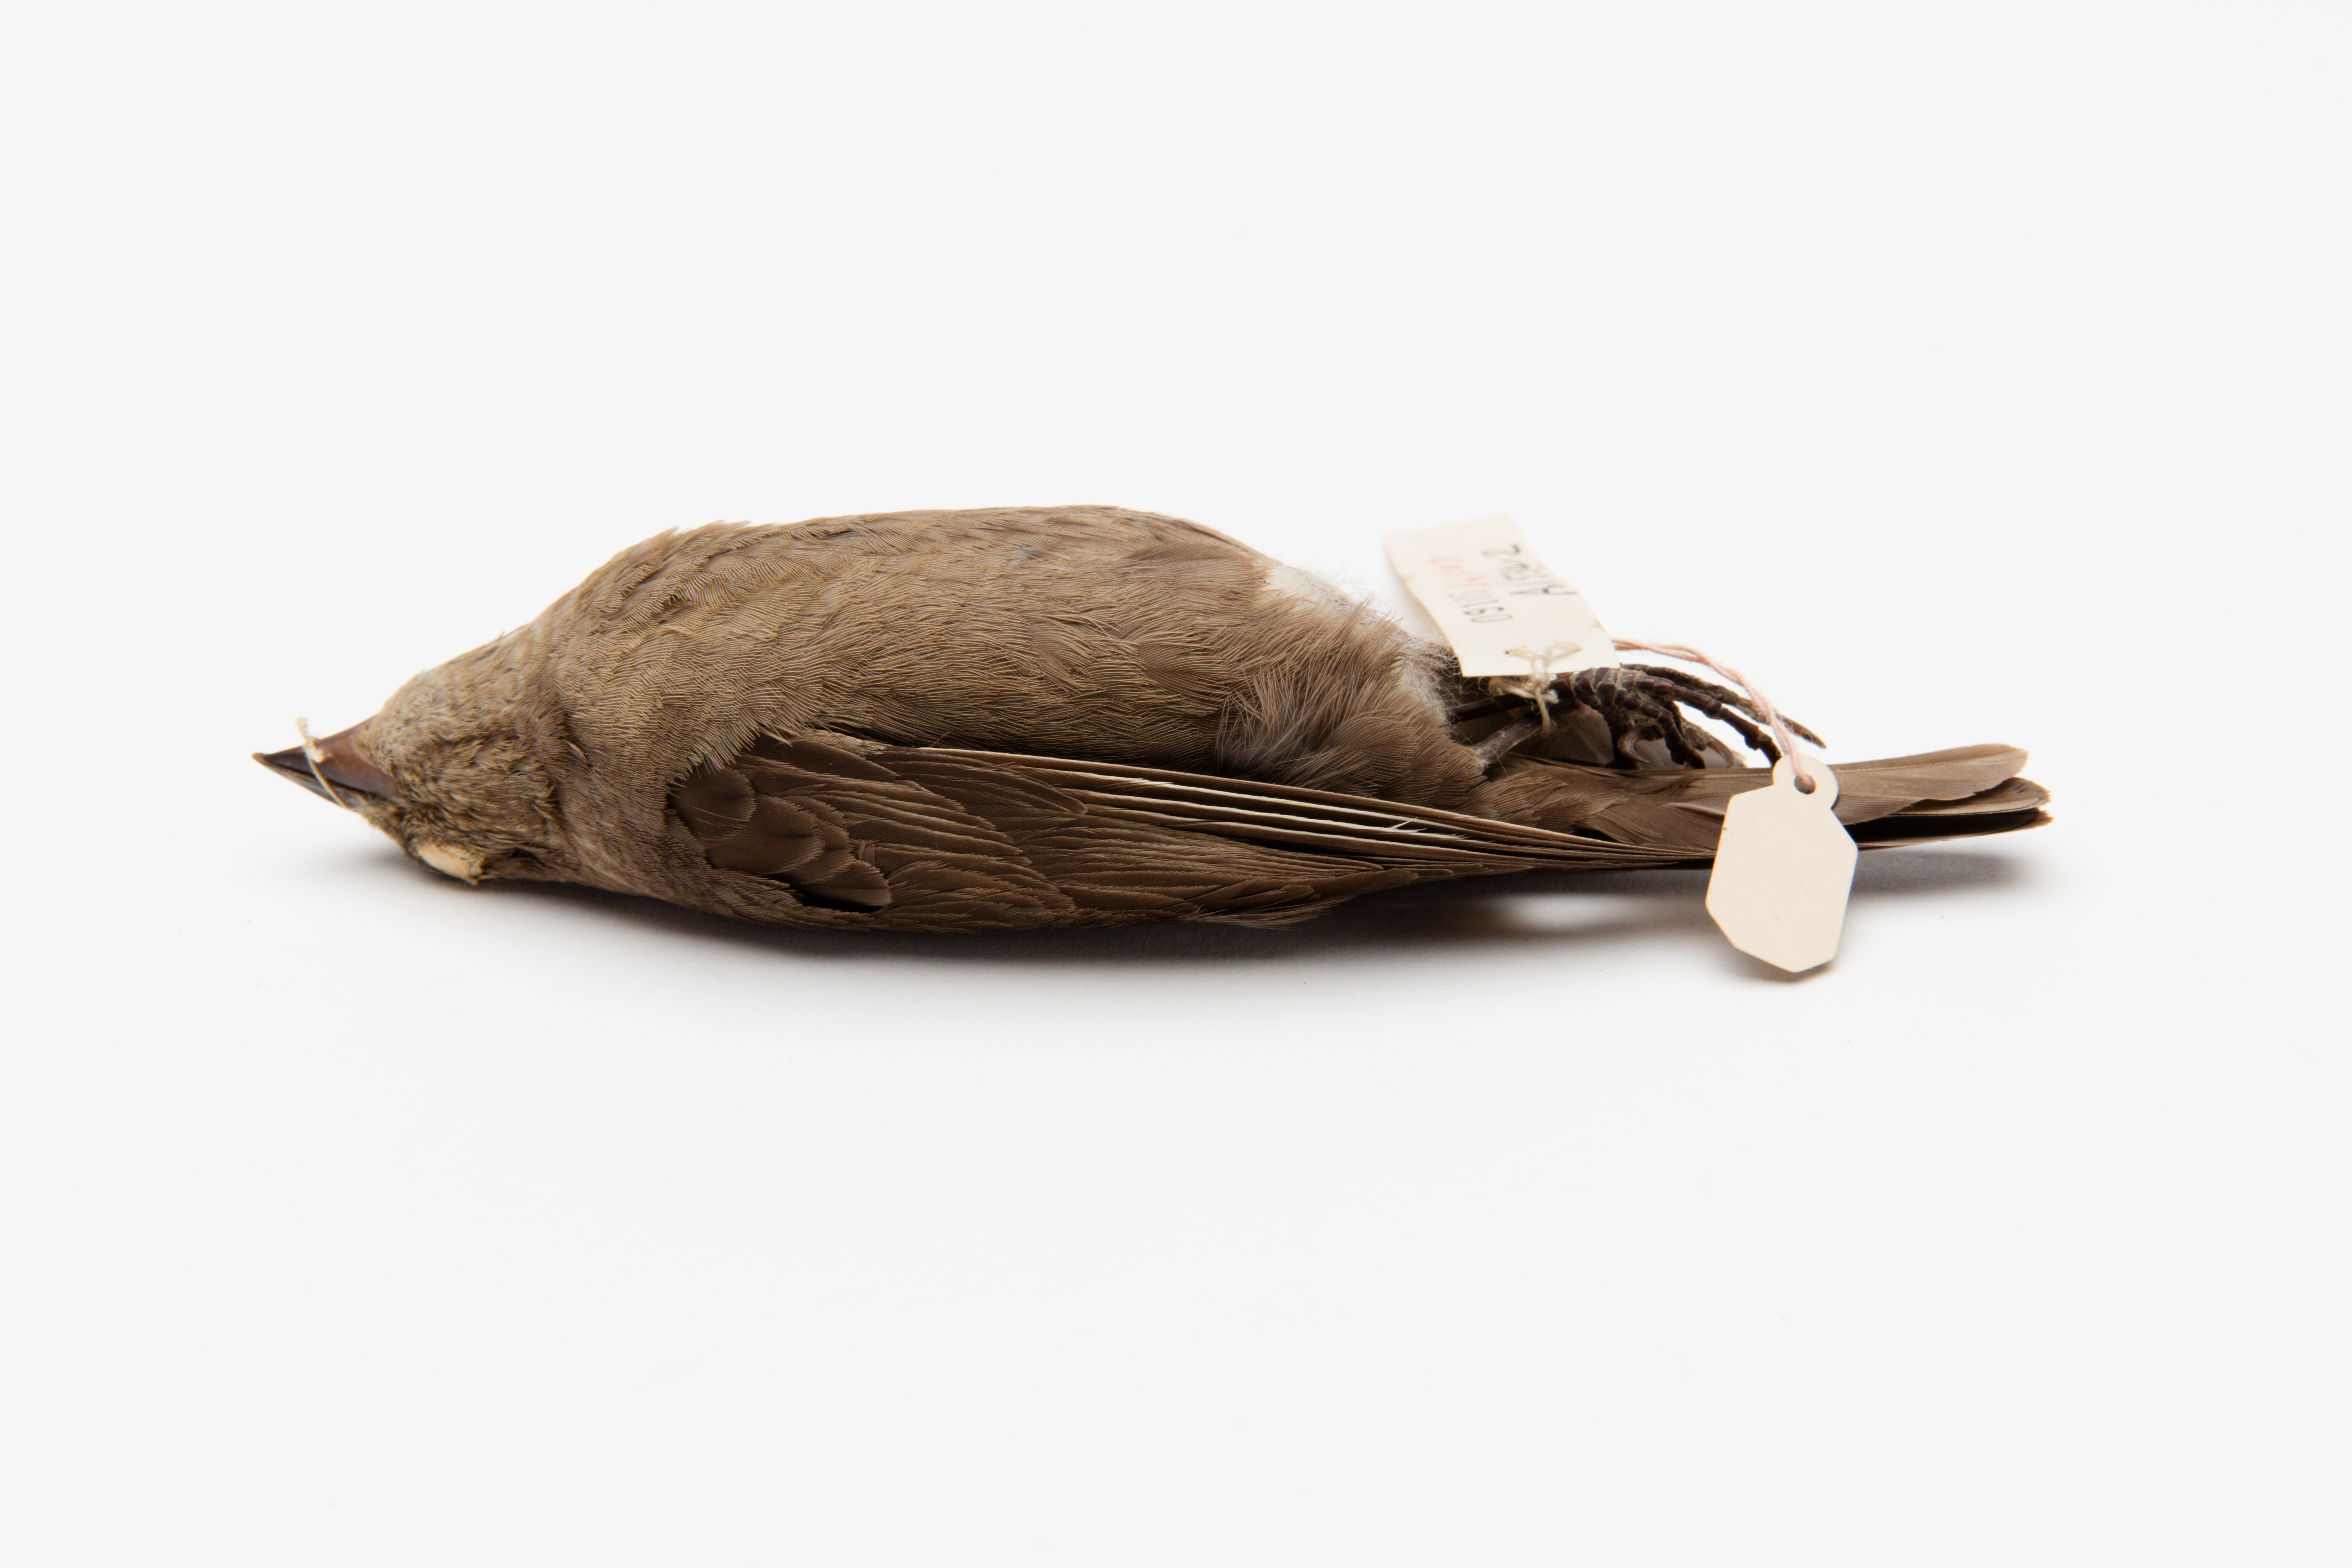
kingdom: Animalia
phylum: Chordata
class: Aves
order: Passeriformes
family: Icteridae
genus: Molothrus
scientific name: Molothrus ater
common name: Brown-headed cowbird
